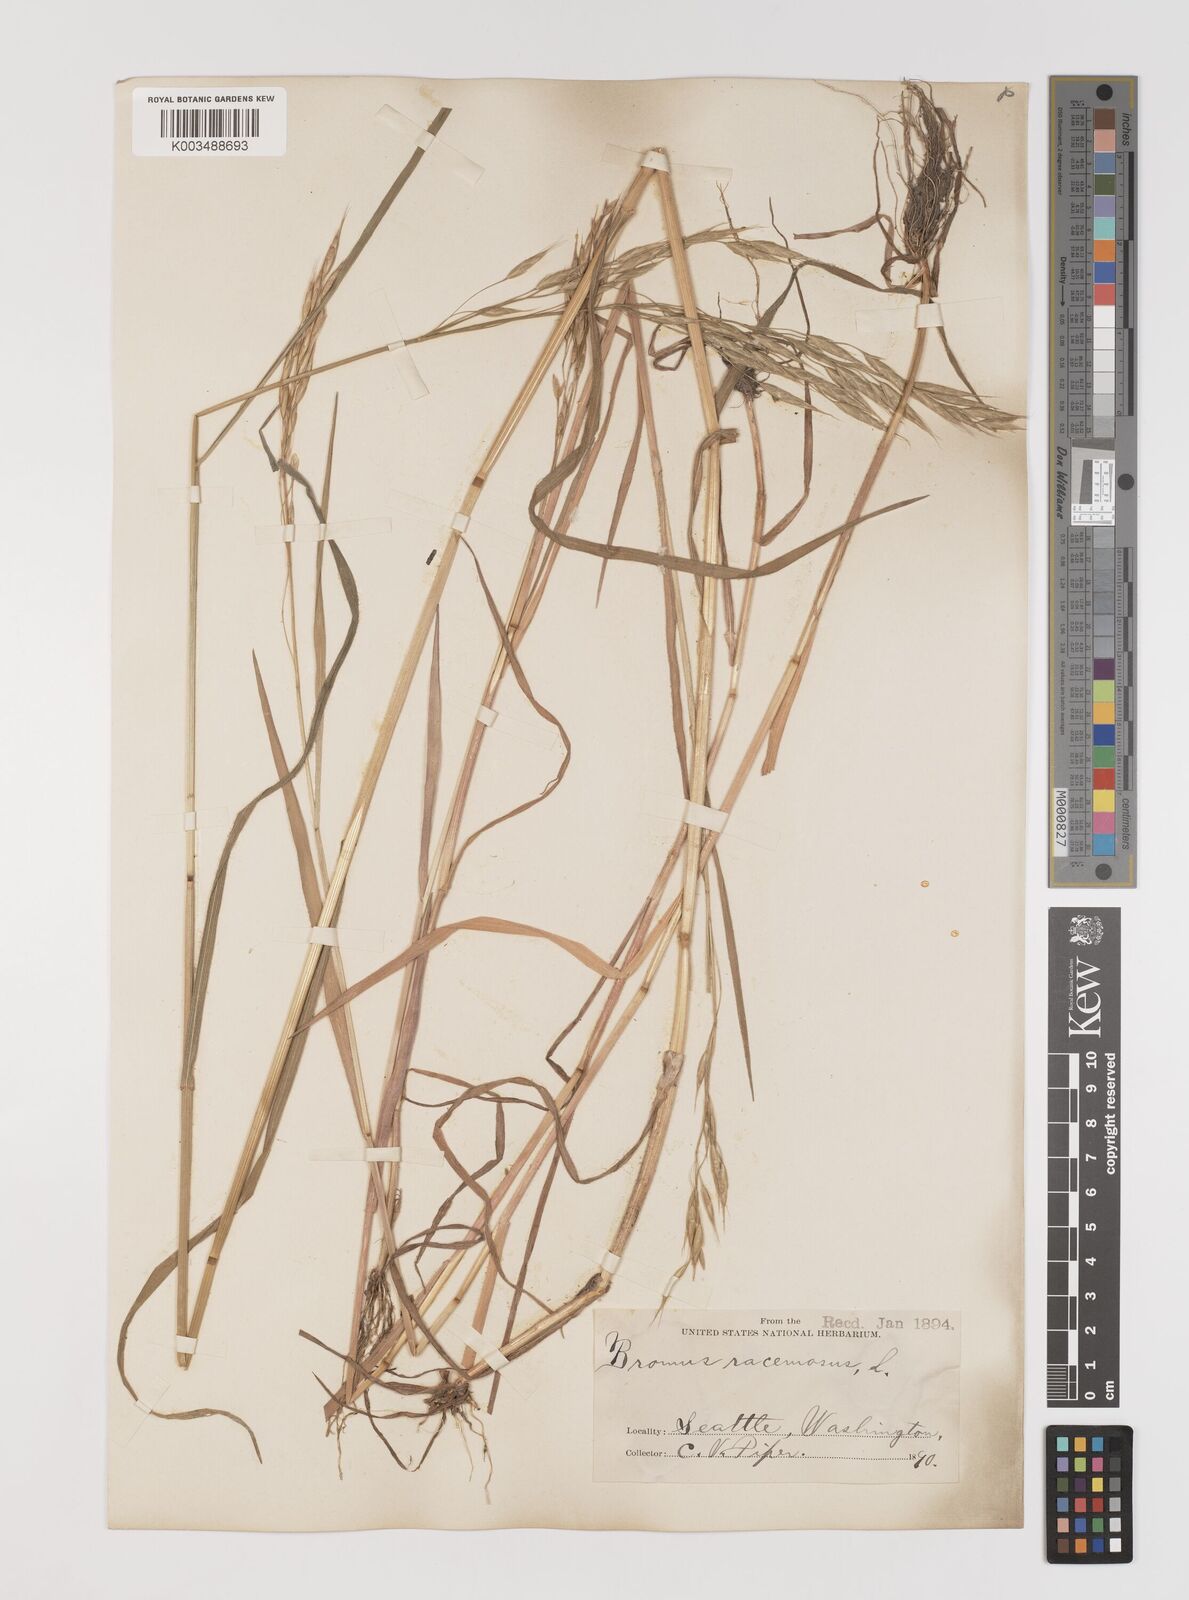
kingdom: Plantae
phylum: Tracheophyta
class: Liliopsida
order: Poales
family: Poaceae
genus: Bromus
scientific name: Bromus racemosus
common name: Bald brome
